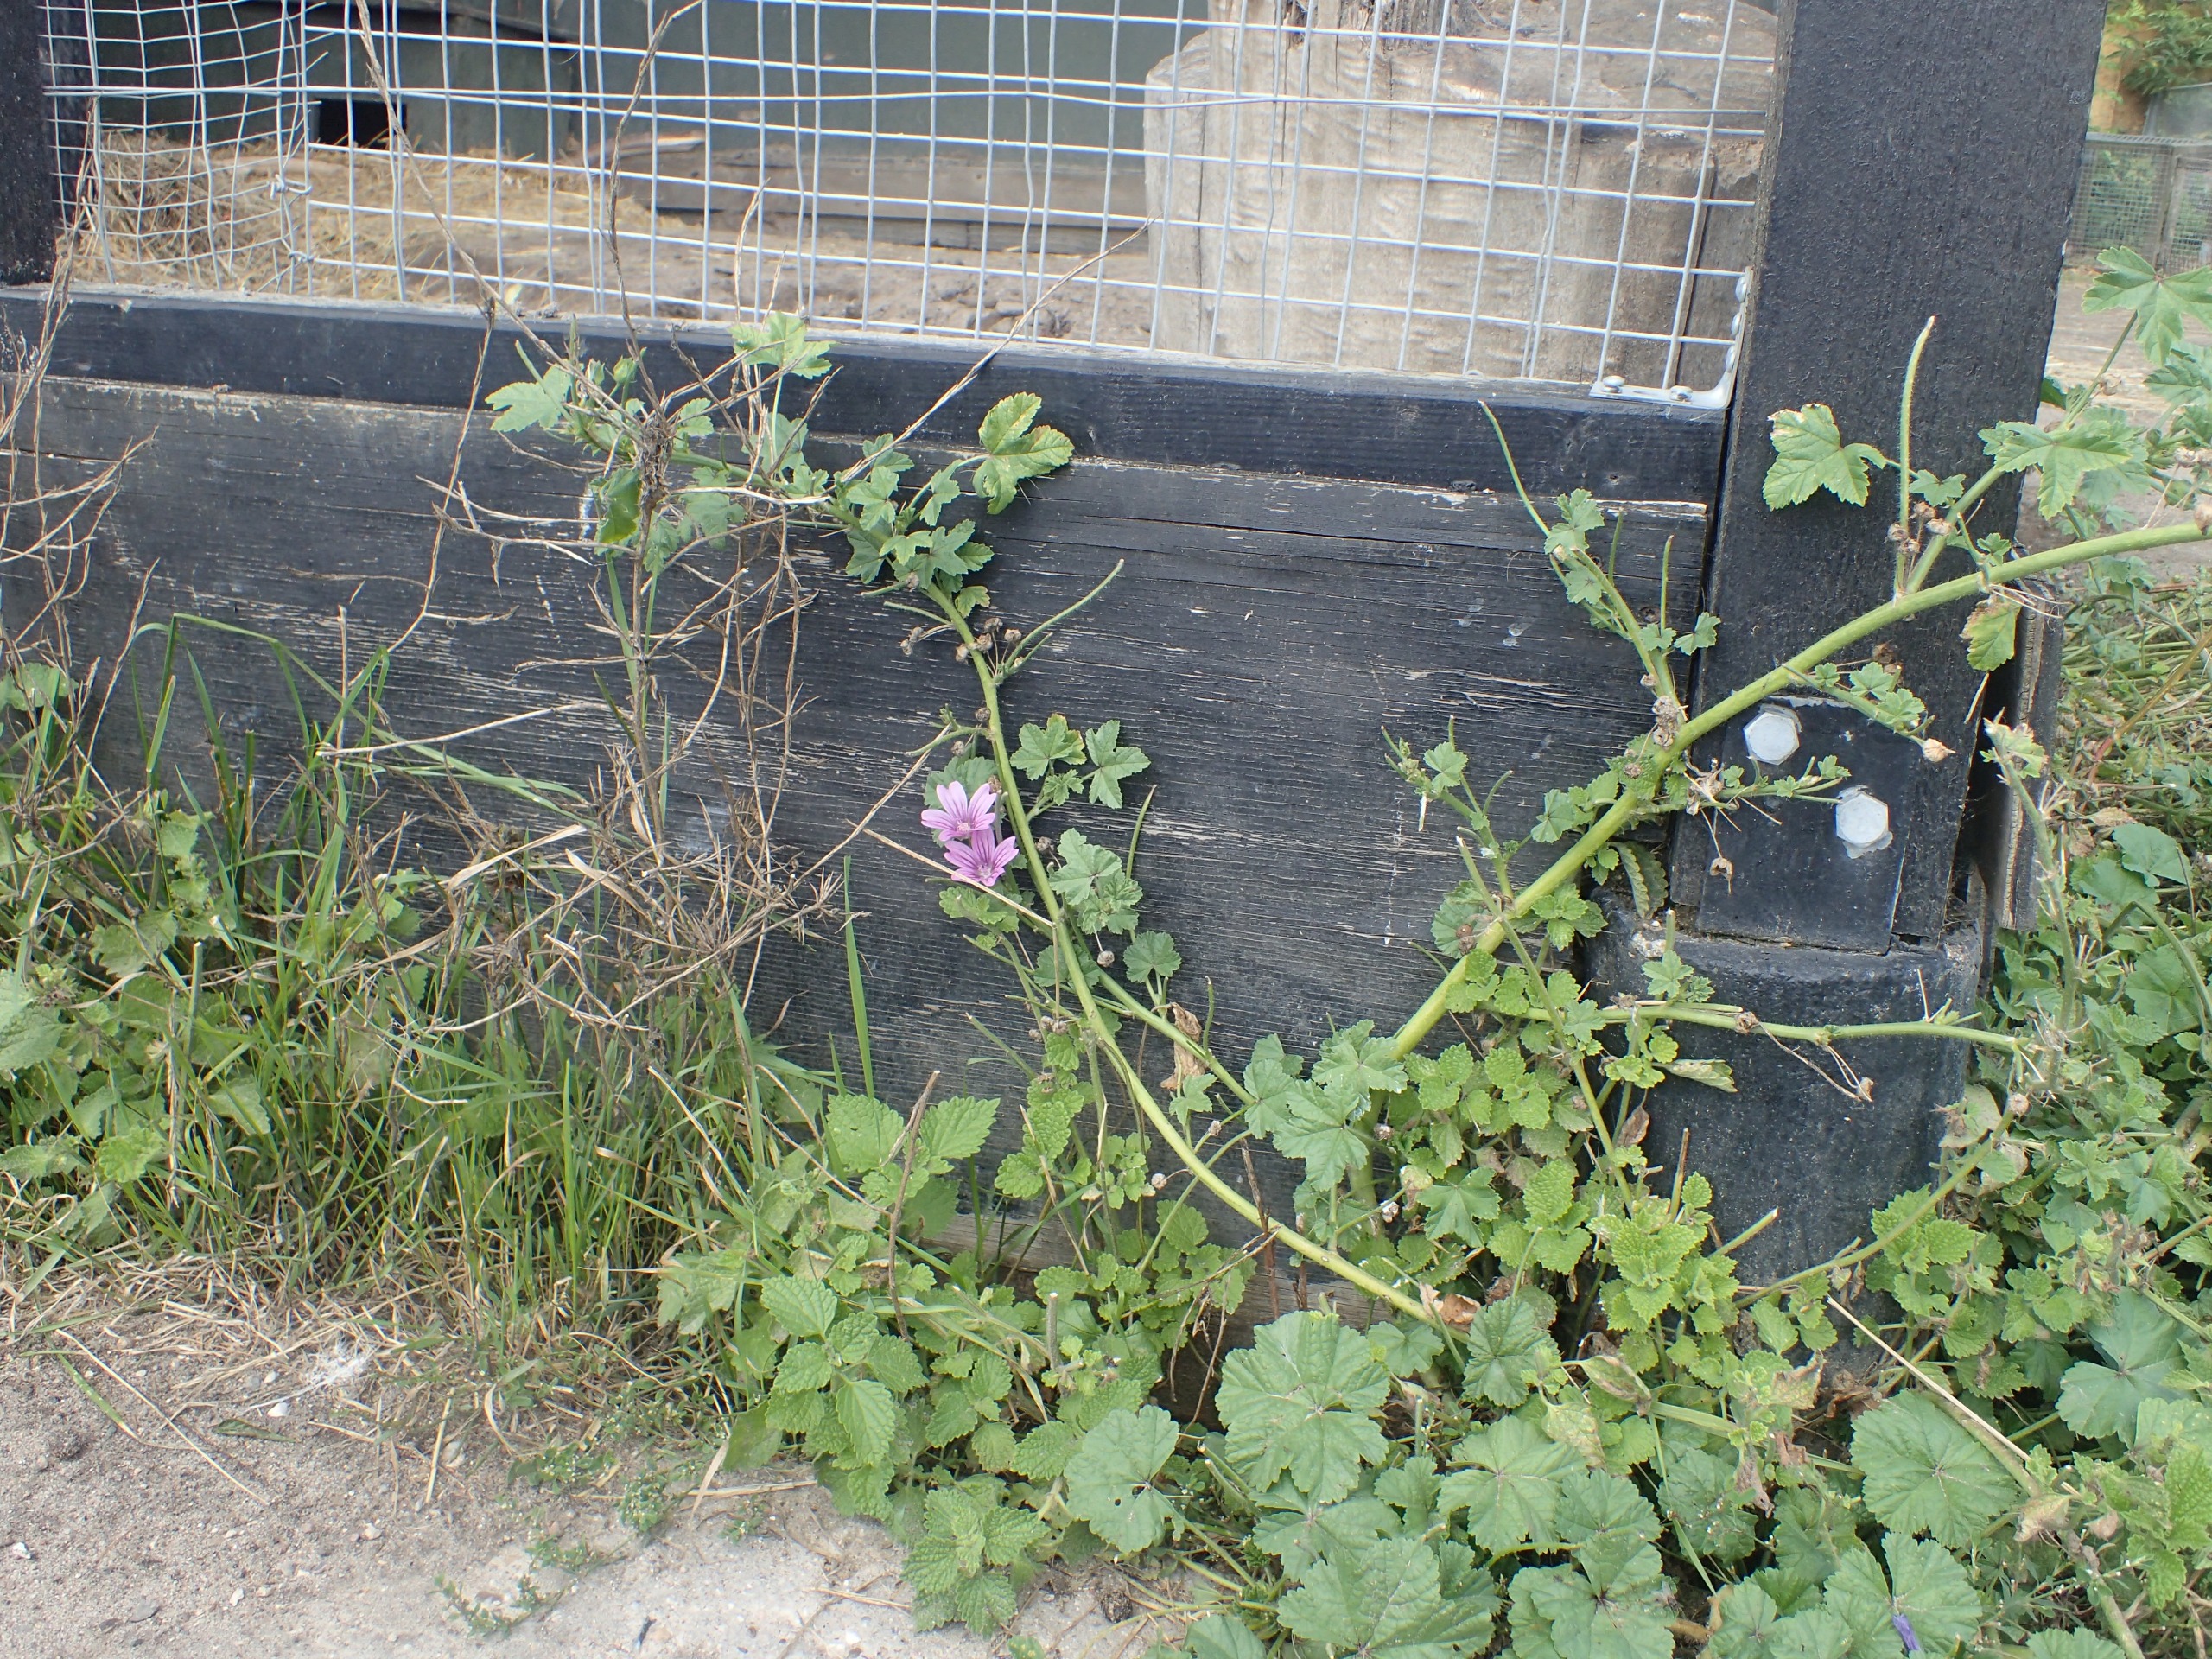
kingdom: Plantae
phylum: Tracheophyta
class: Magnoliopsida
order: Malvales
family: Malvaceae
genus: Malva
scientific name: Malva sylvestris
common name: Almindelig katost
